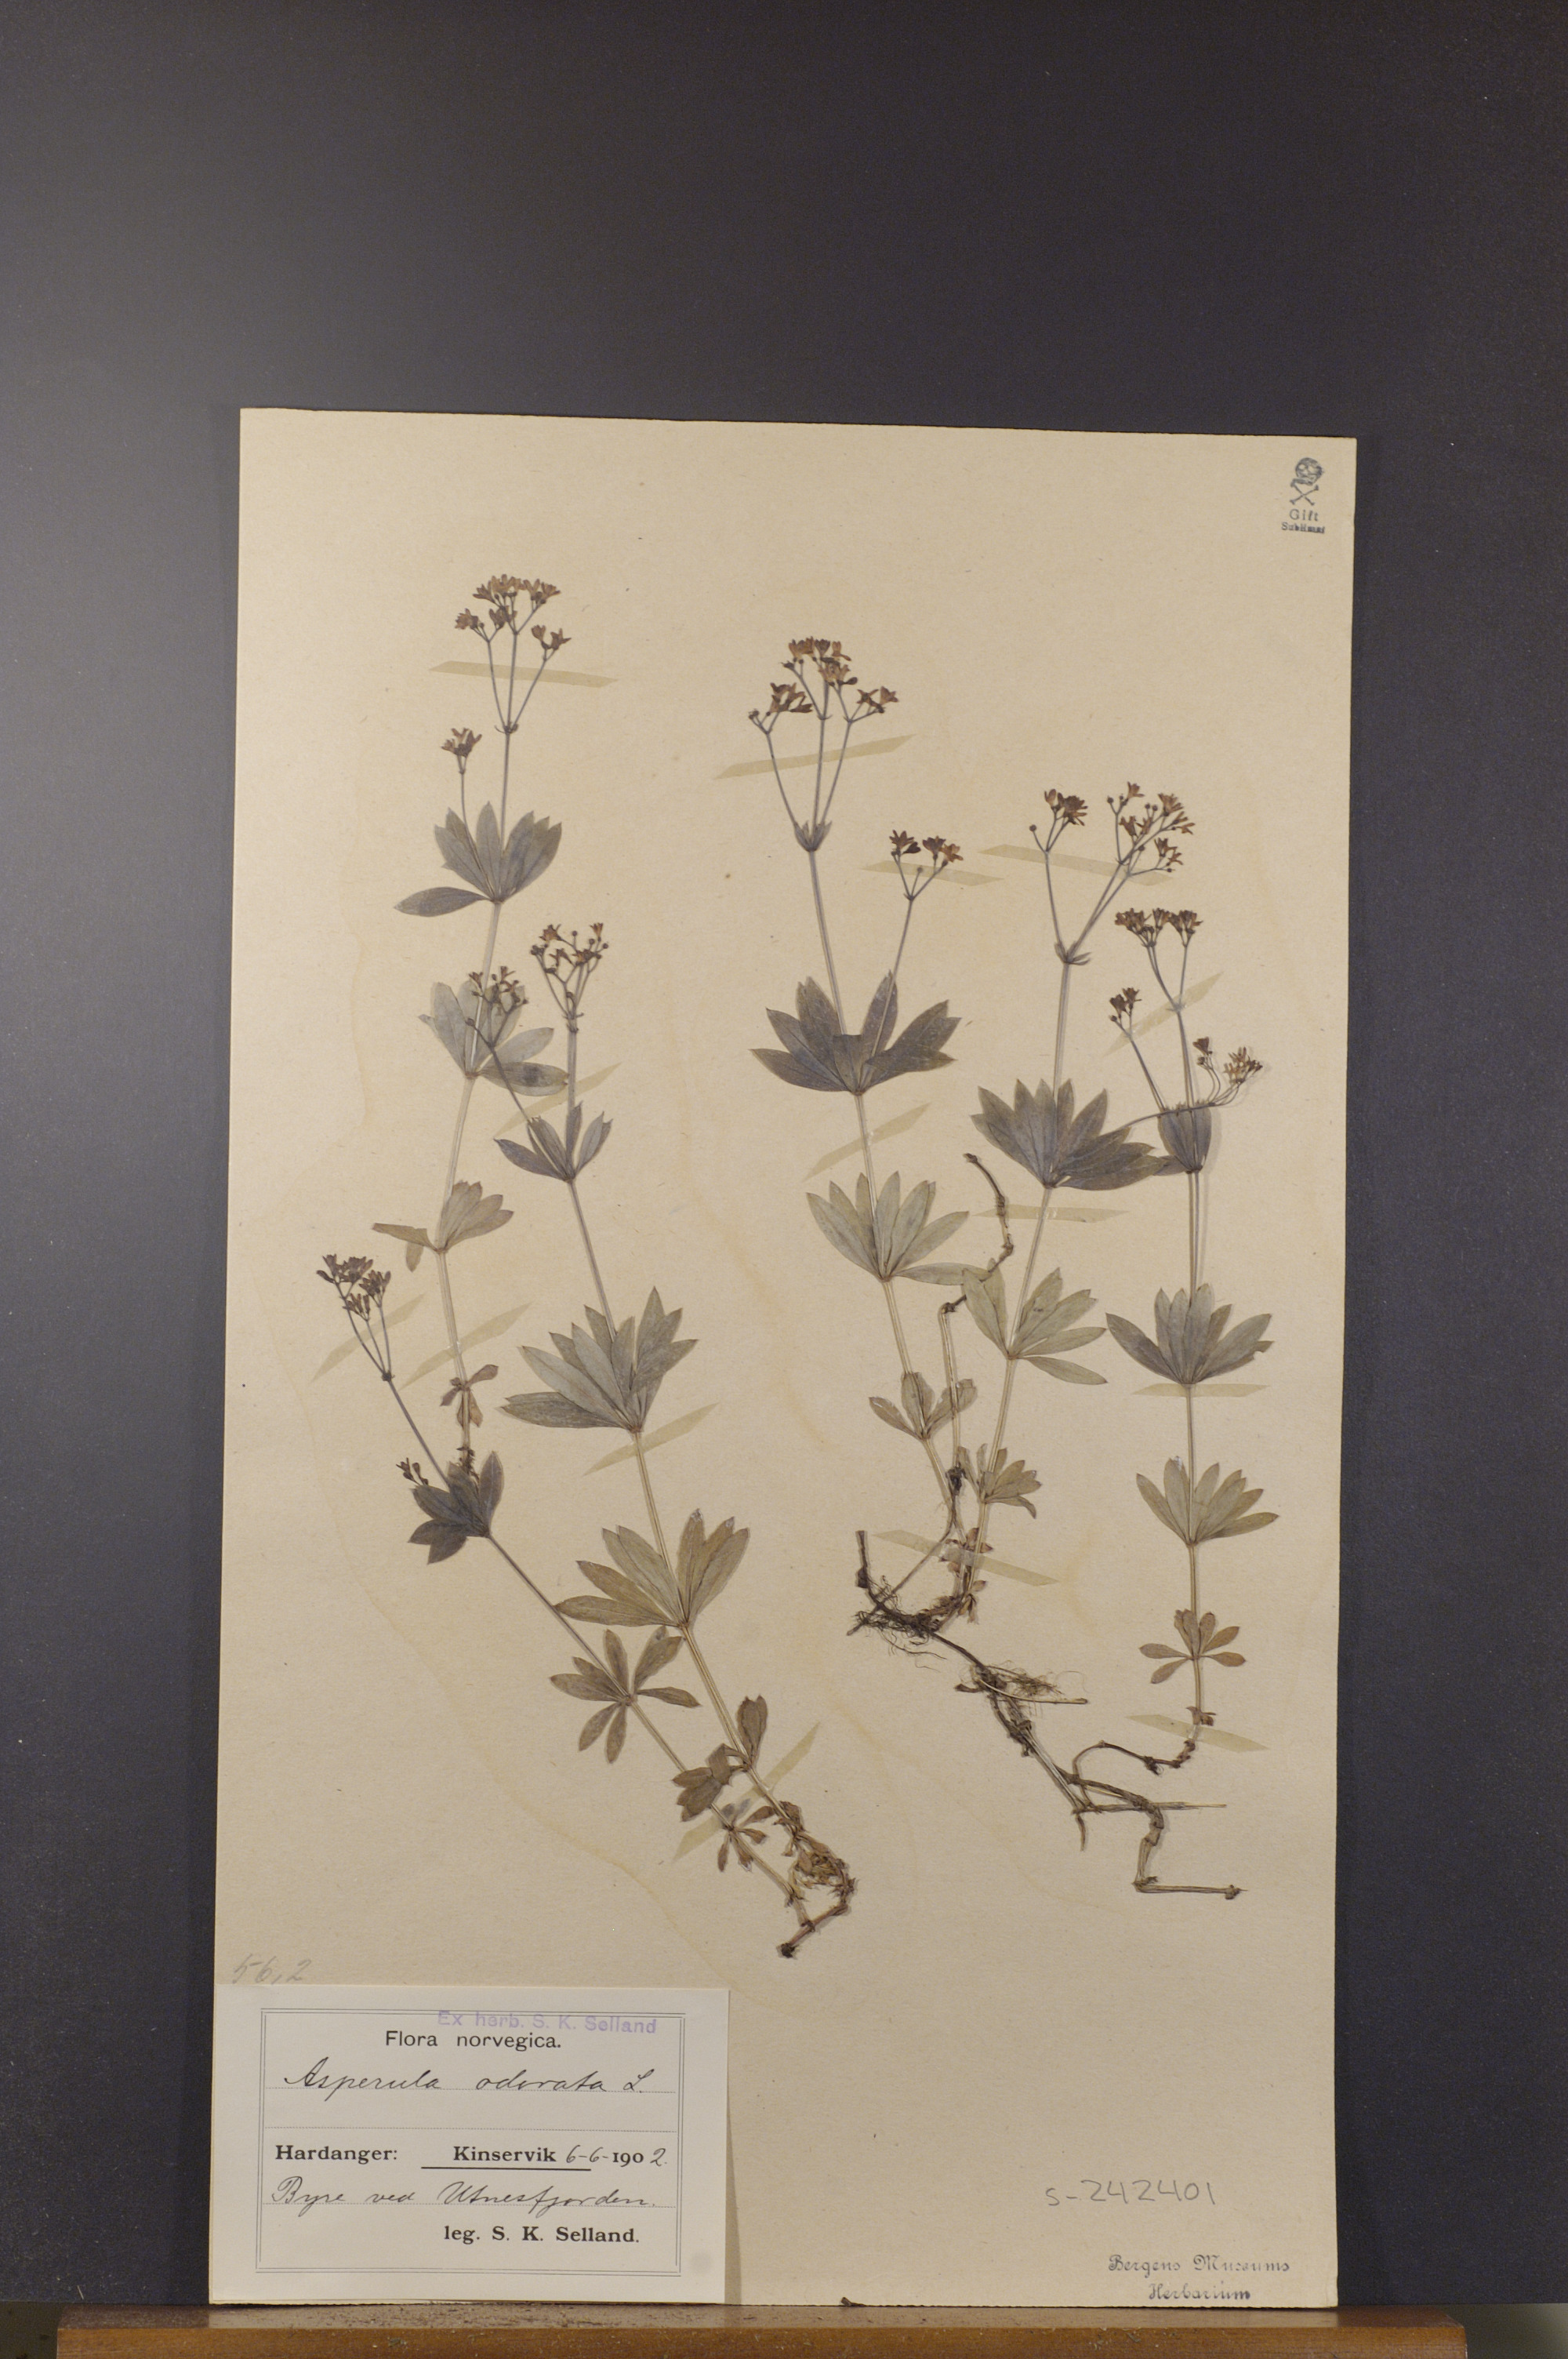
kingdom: Plantae
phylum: Tracheophyta
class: Magnoliopsida
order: Gentianales
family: Rubiaceae
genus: Galium
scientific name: Galium odoratum
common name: Sweet woodruff
